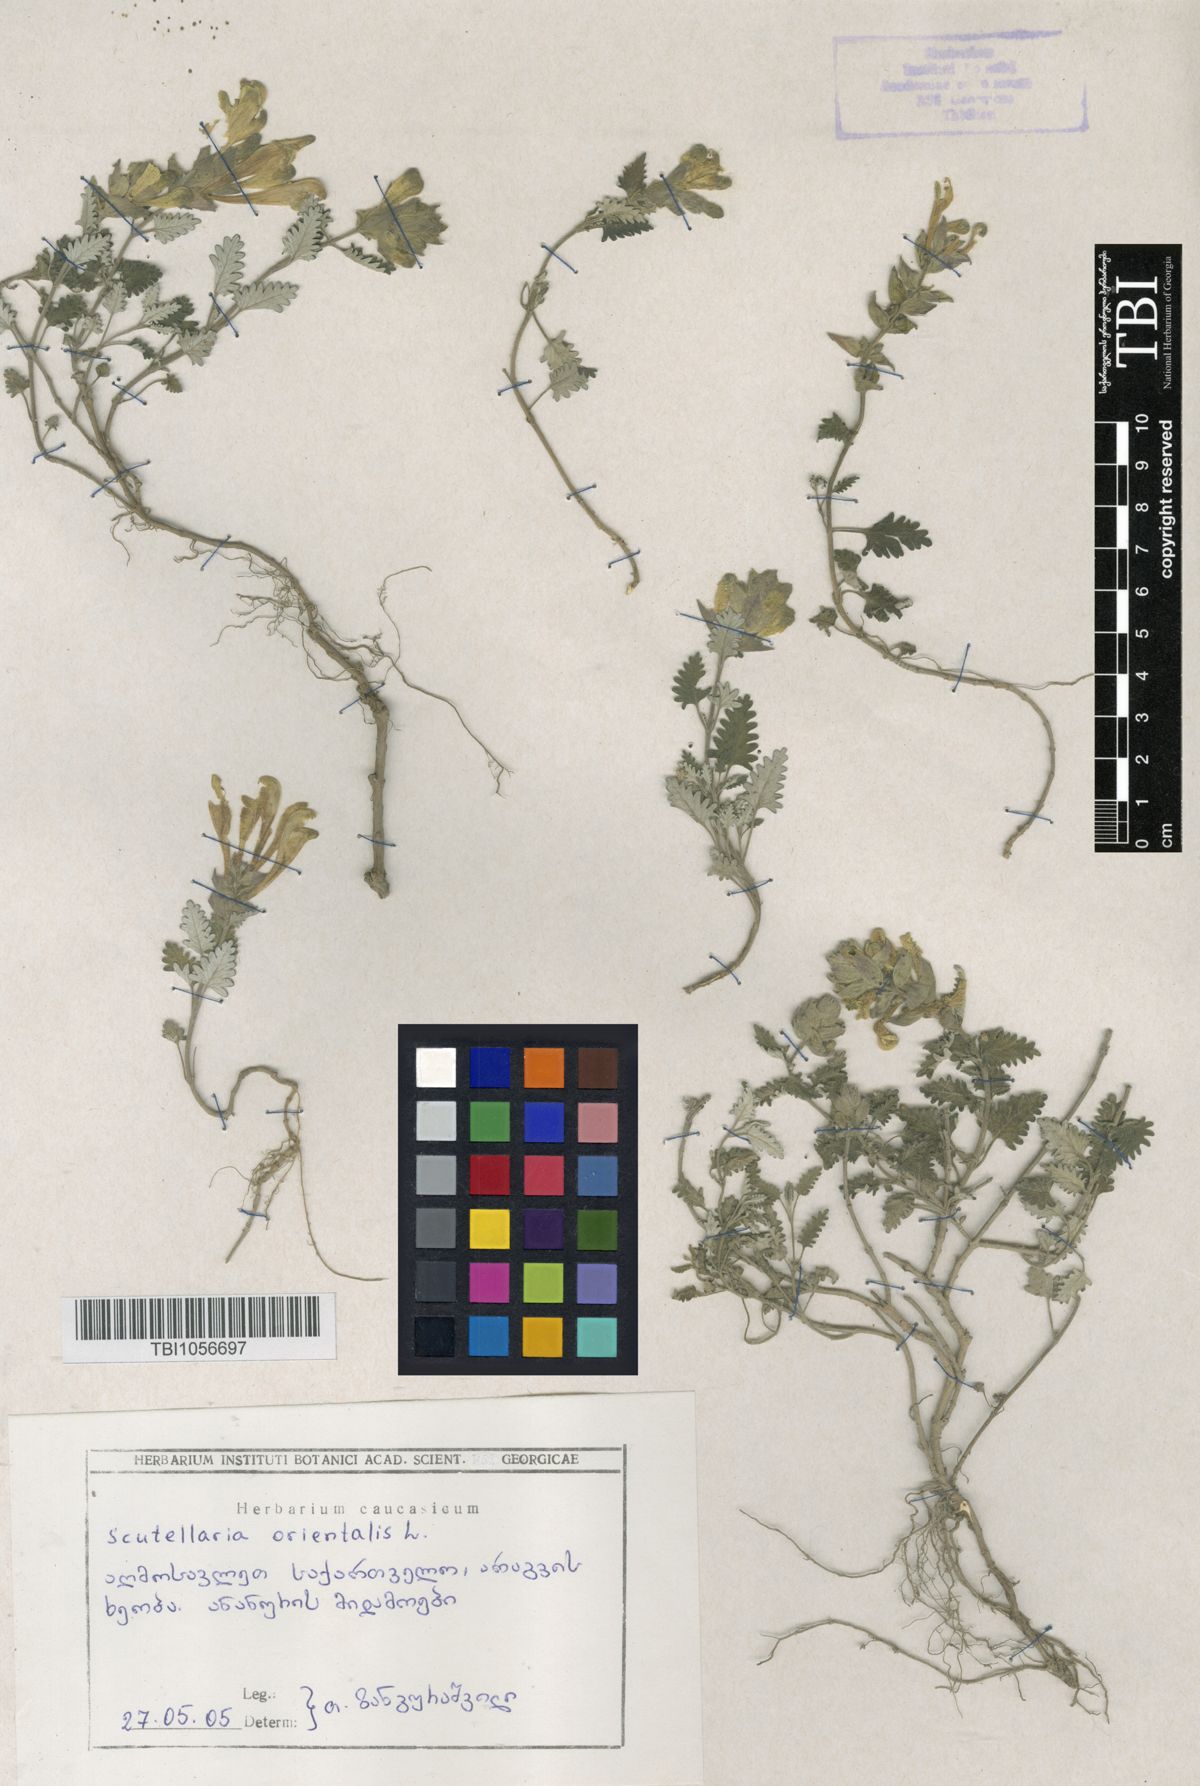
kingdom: Plantae
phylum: Tracheophyta
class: Magnoliopsida
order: Lamiales
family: Lamiaceae
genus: Scutellaria
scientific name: Scutellaria orientalis
